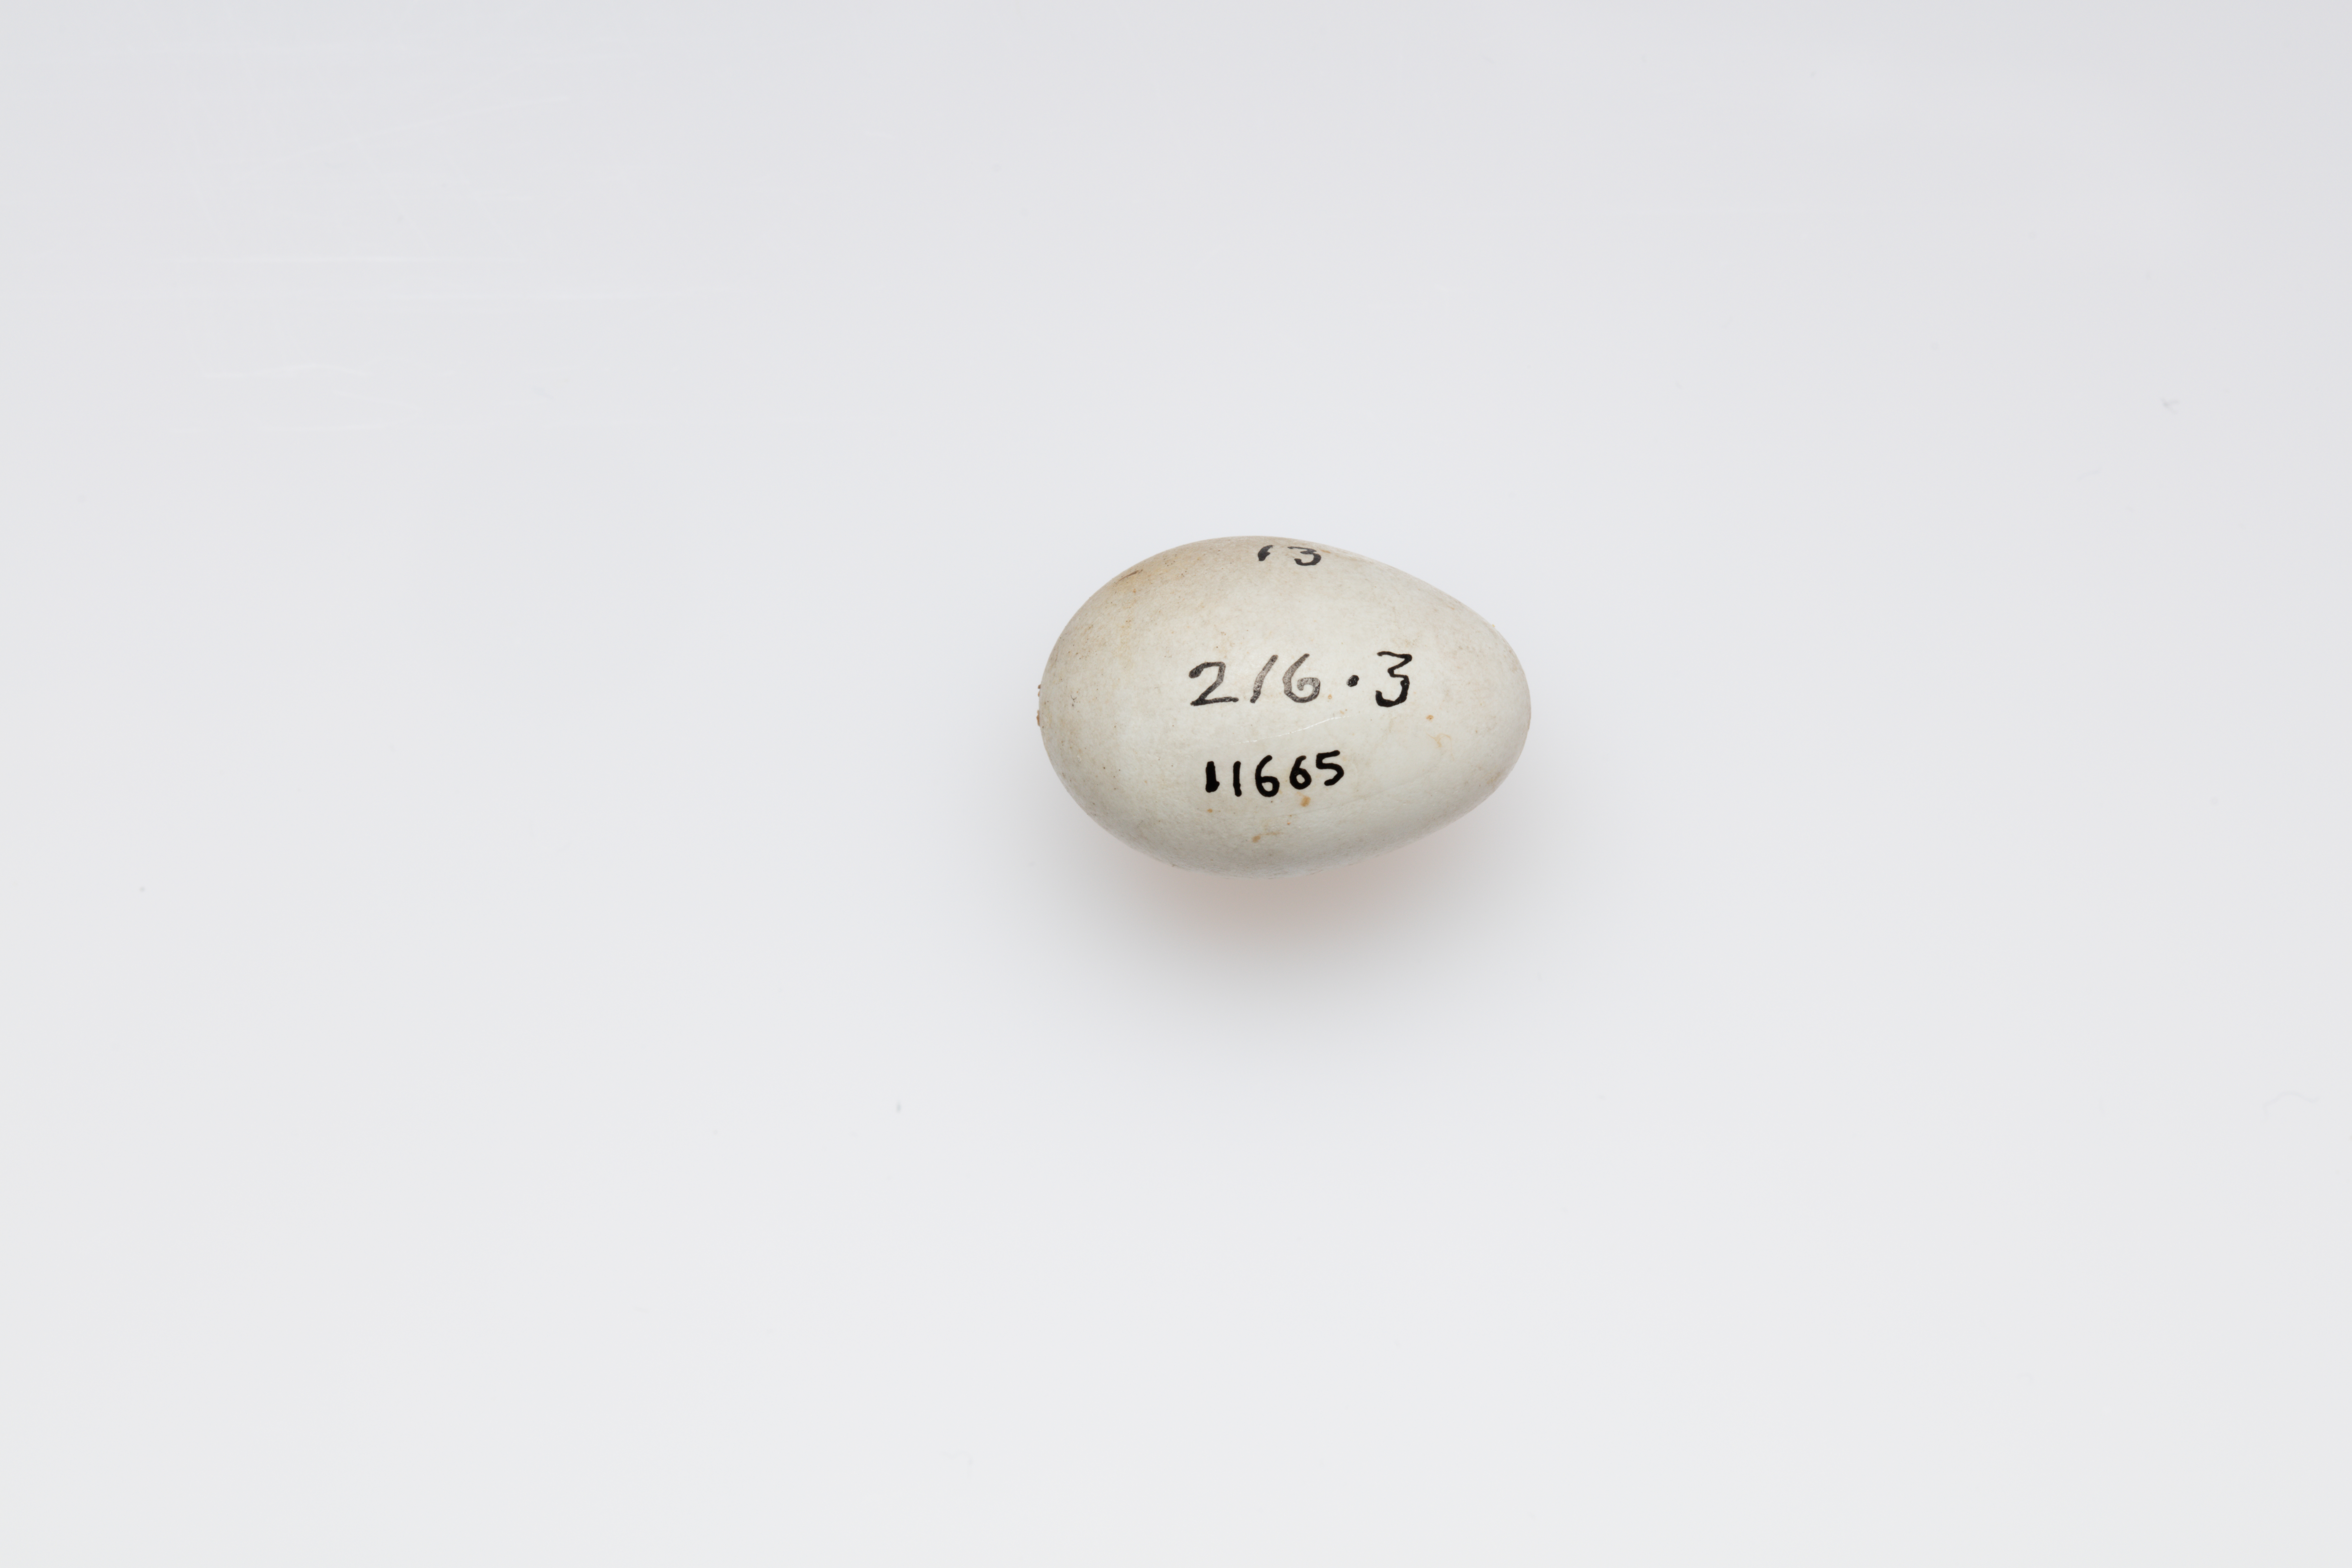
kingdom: Animalia
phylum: Chordata
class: Aves
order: Passeriformes
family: Muscicapidae
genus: Phoenicurus
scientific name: Phoenicurus ochruros
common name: Black redstart
